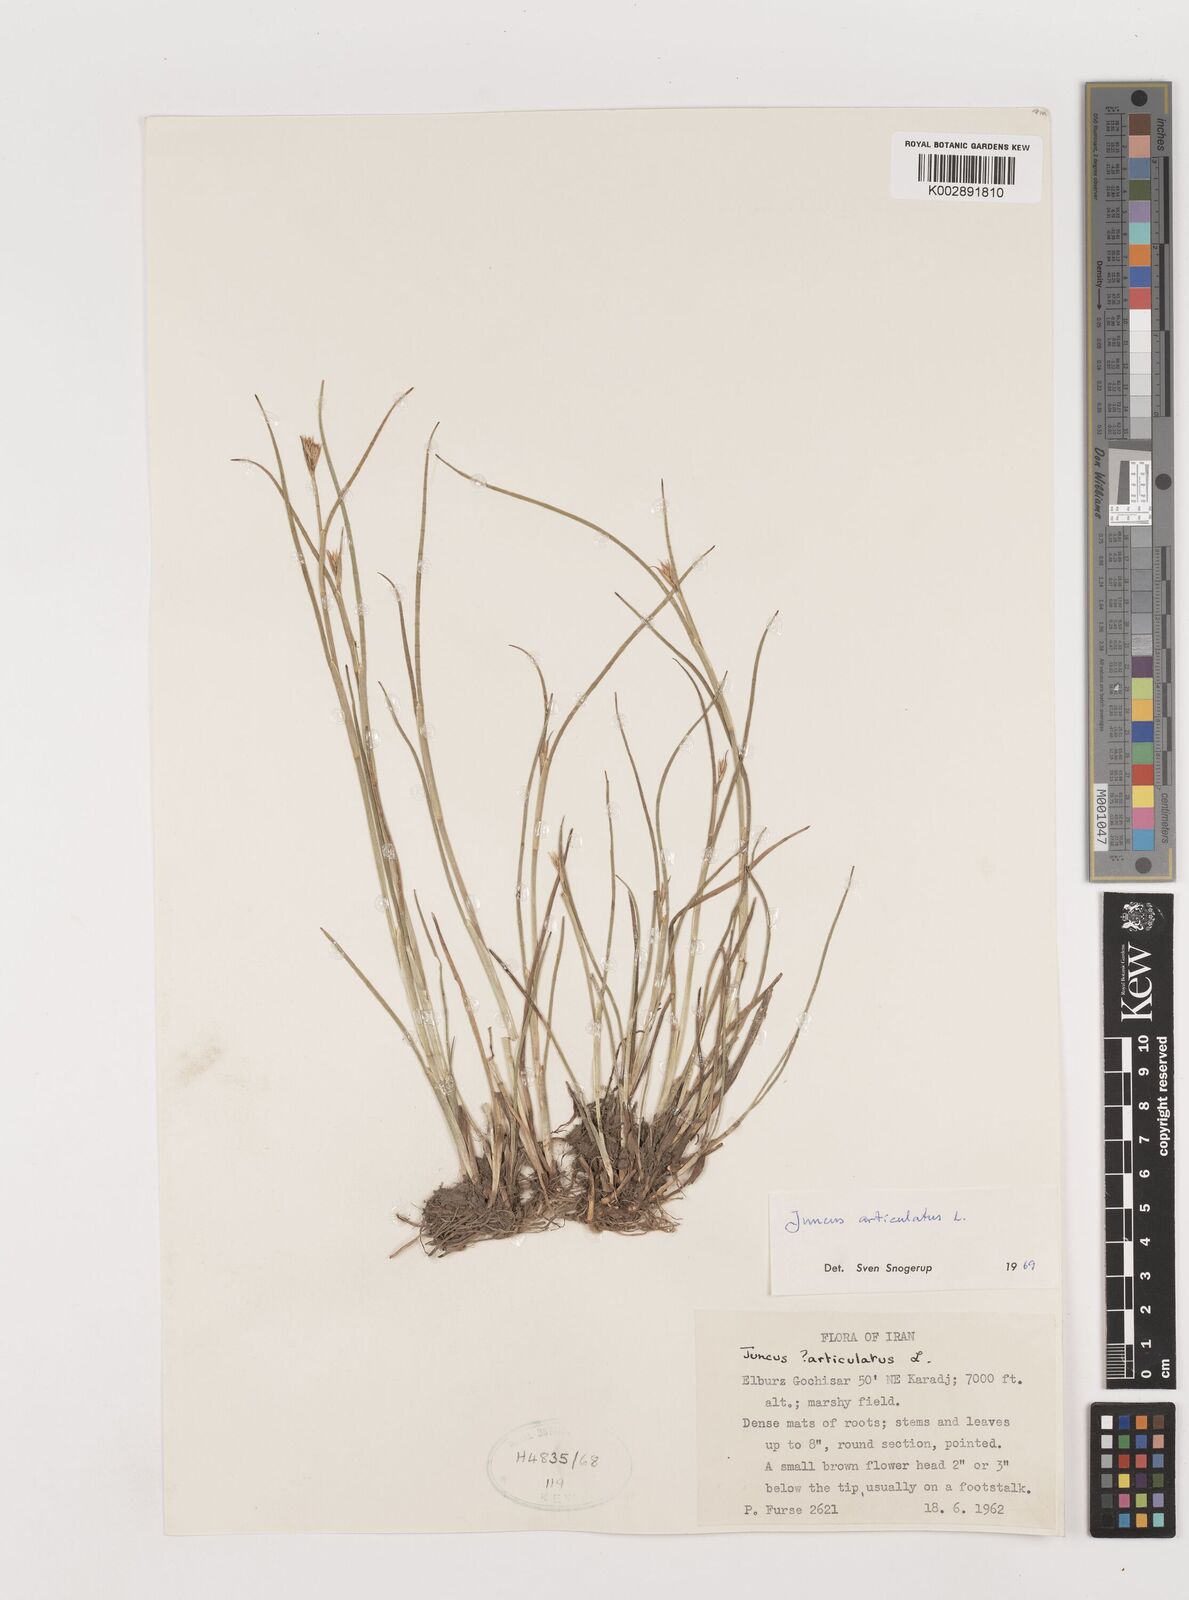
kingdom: Plantae
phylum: Tracheophyta
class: Liliopsida
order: Poales
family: Juncaceae
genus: Juncus
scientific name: Juncus articulatus
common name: Jointed rush
